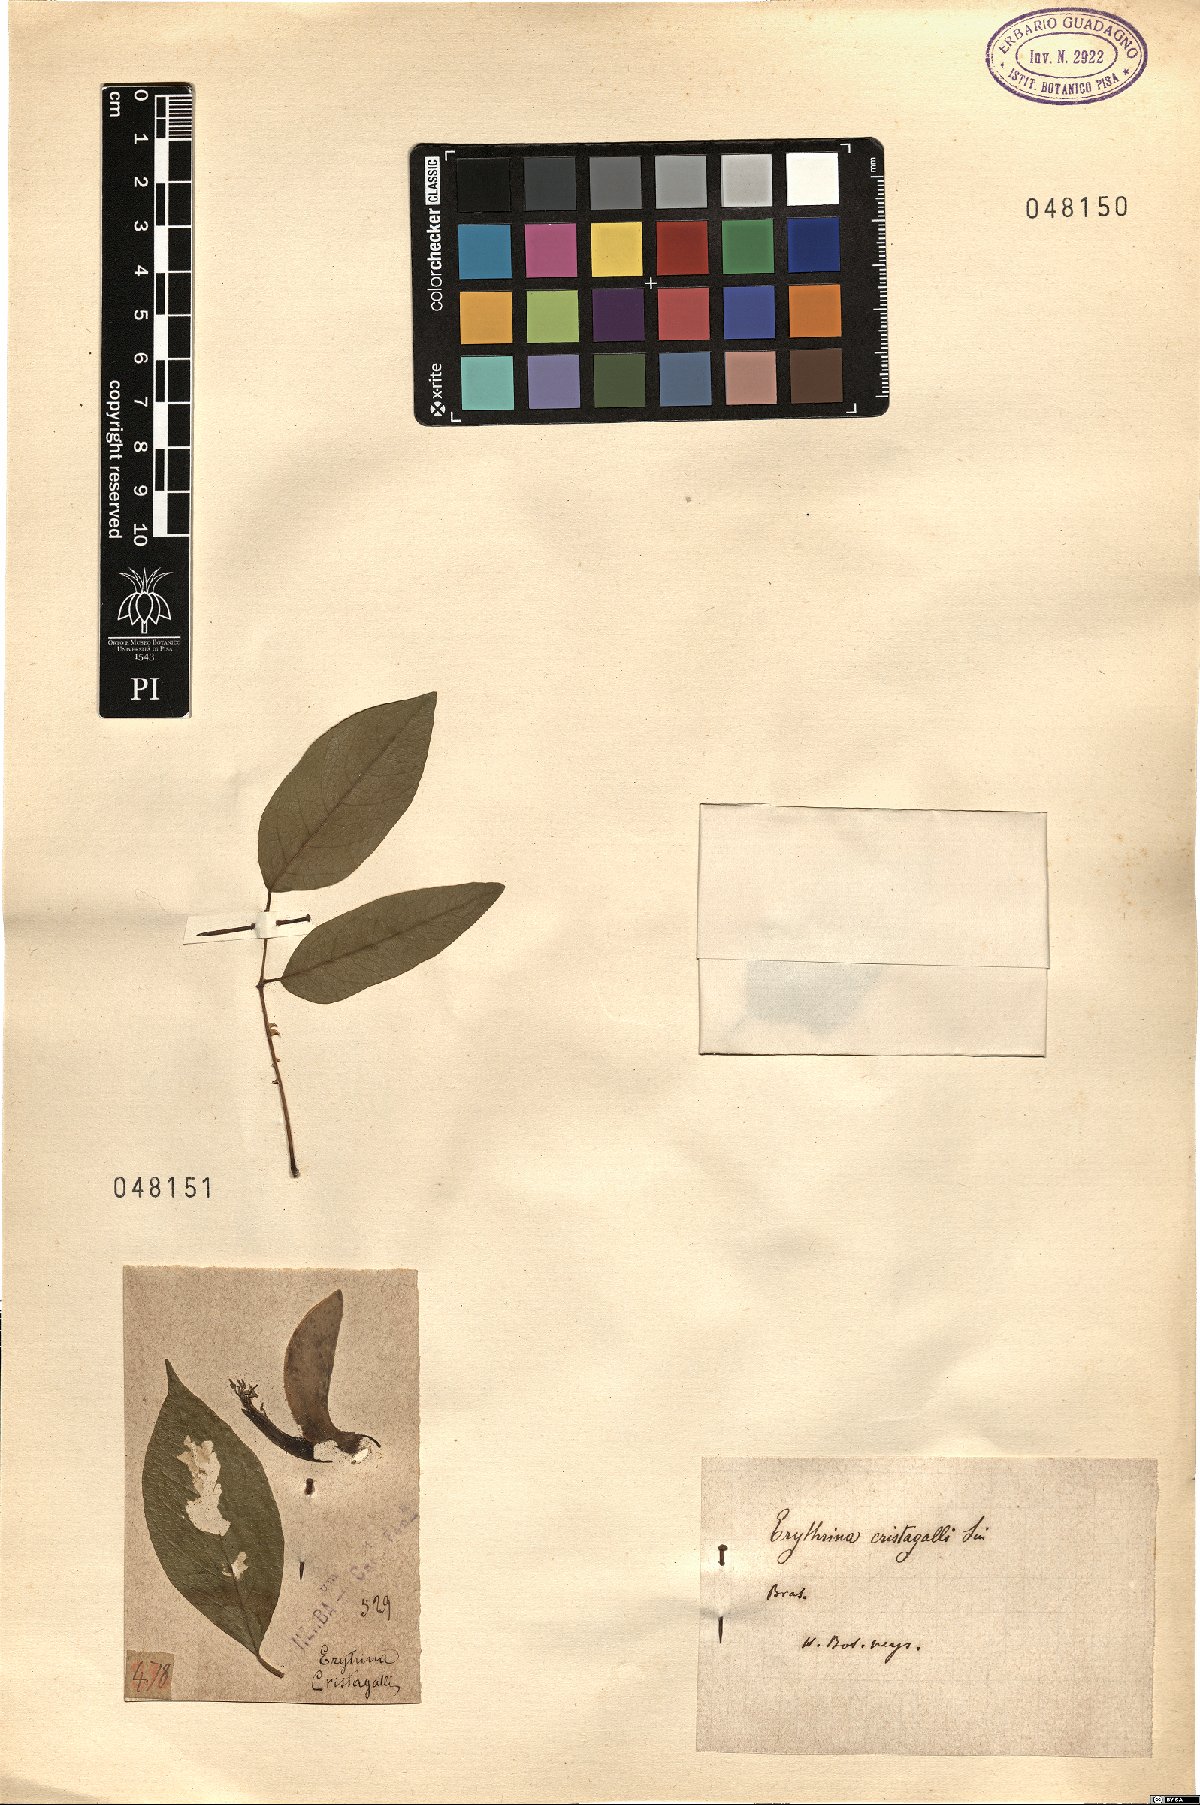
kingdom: Plantae
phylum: Tracheophyta
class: Magnoliopsida
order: Fabales
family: Fabaceae
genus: Erythrina
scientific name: Erythrina crista-galli
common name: Cockspur coral tree
